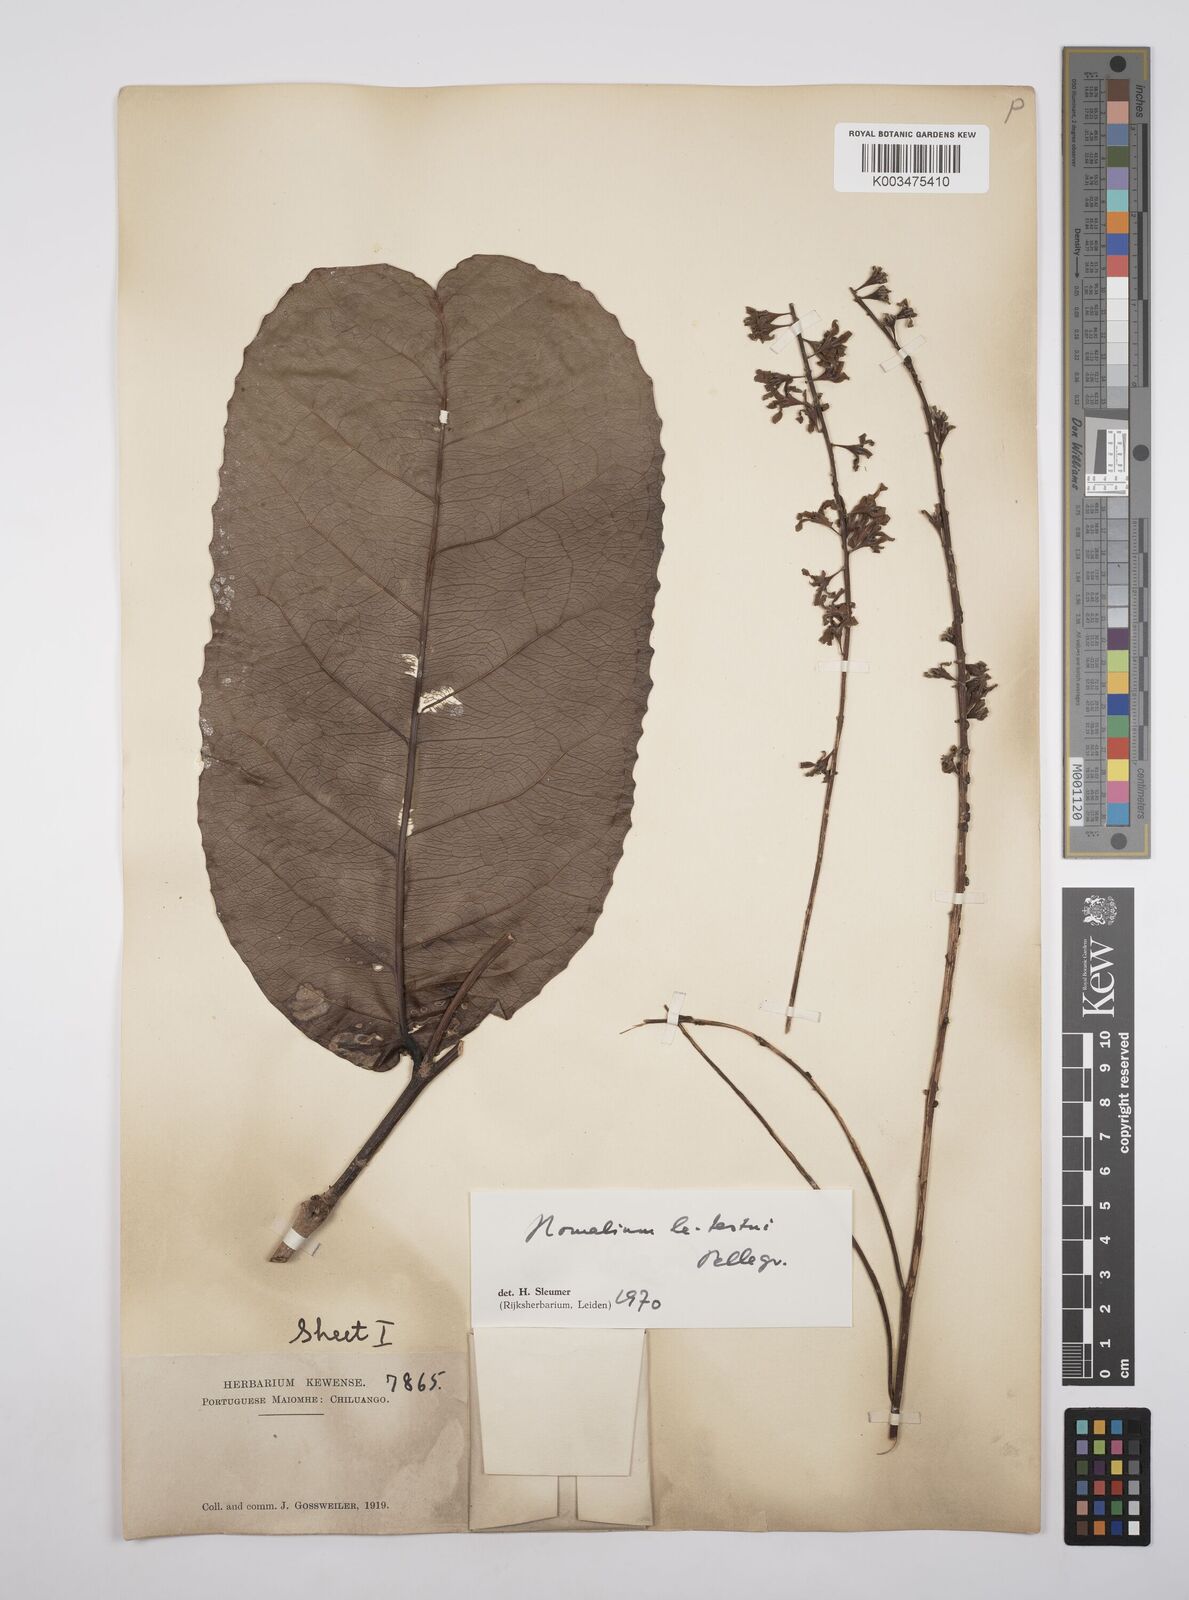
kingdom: Plantae
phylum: Tracheophyta
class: Magnoliopsida
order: Malpighiales
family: Salicaceae
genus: Homalium
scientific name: Homalium letestui
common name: African homalium
